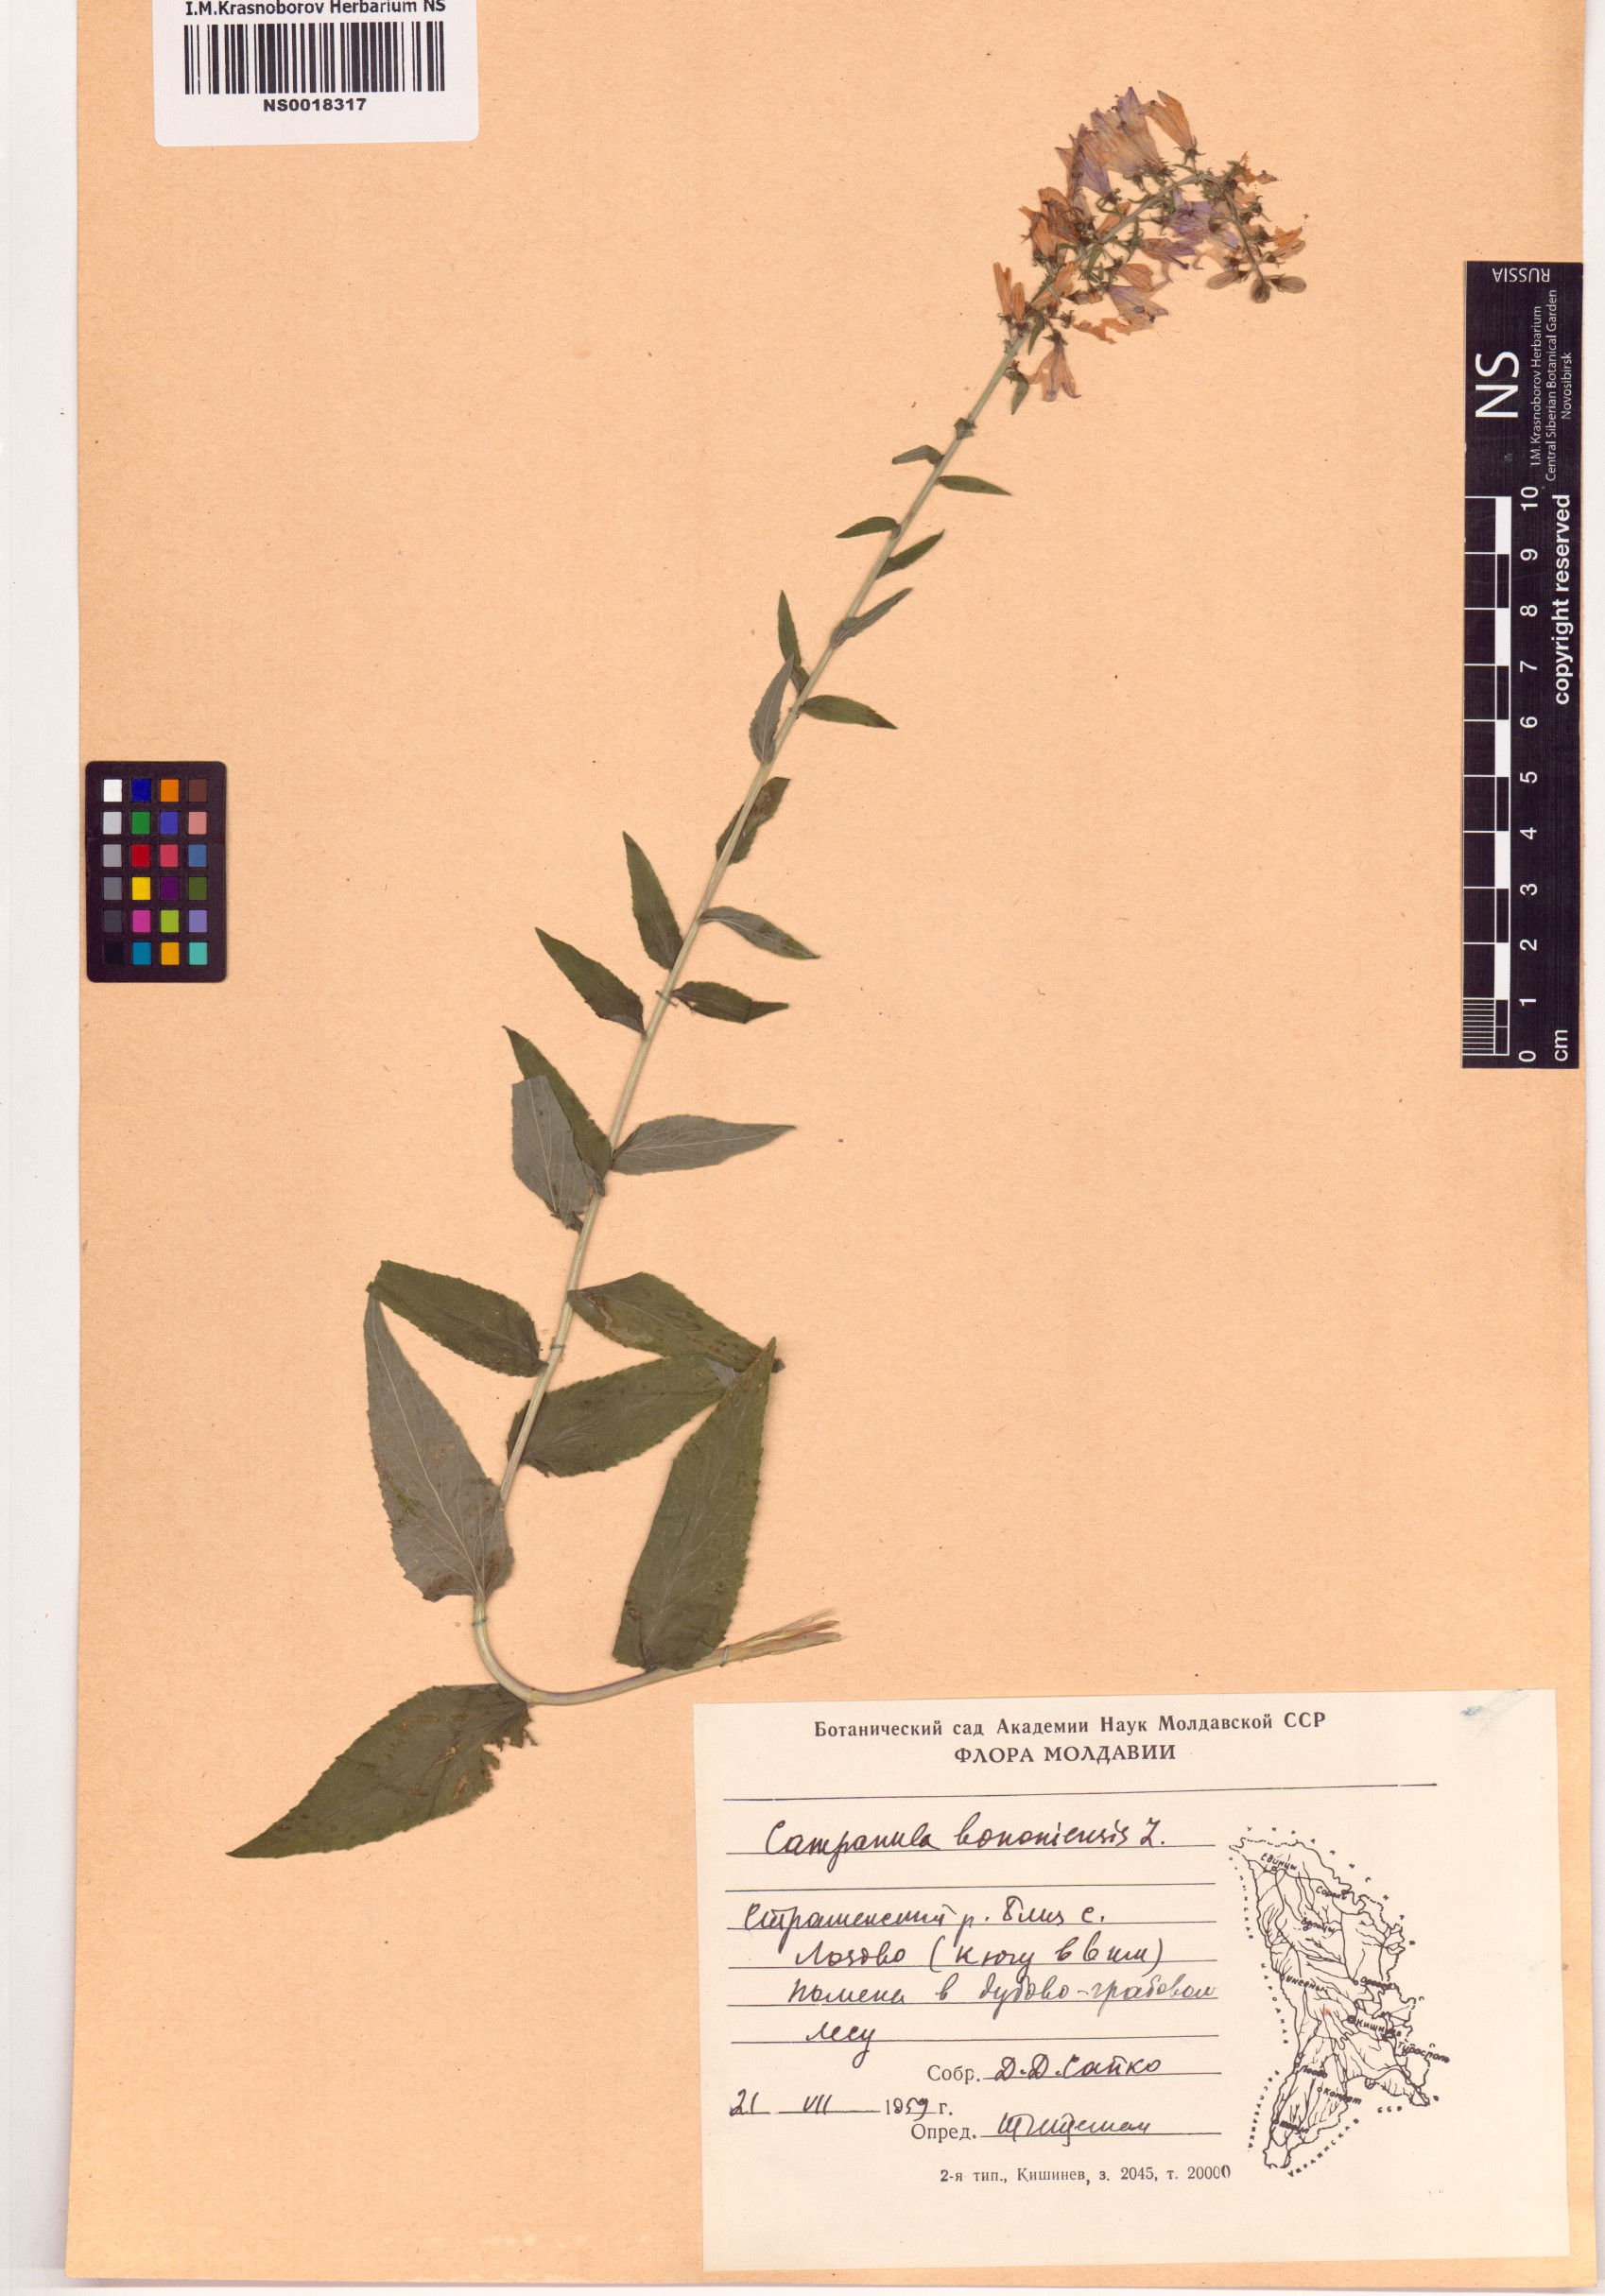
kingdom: Plantae
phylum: Tracheophyta
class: Magnoliopsida
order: Asterales
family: Campanulaceae
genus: Campanula
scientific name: Campanula bononiensis
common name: Pale bellflower
